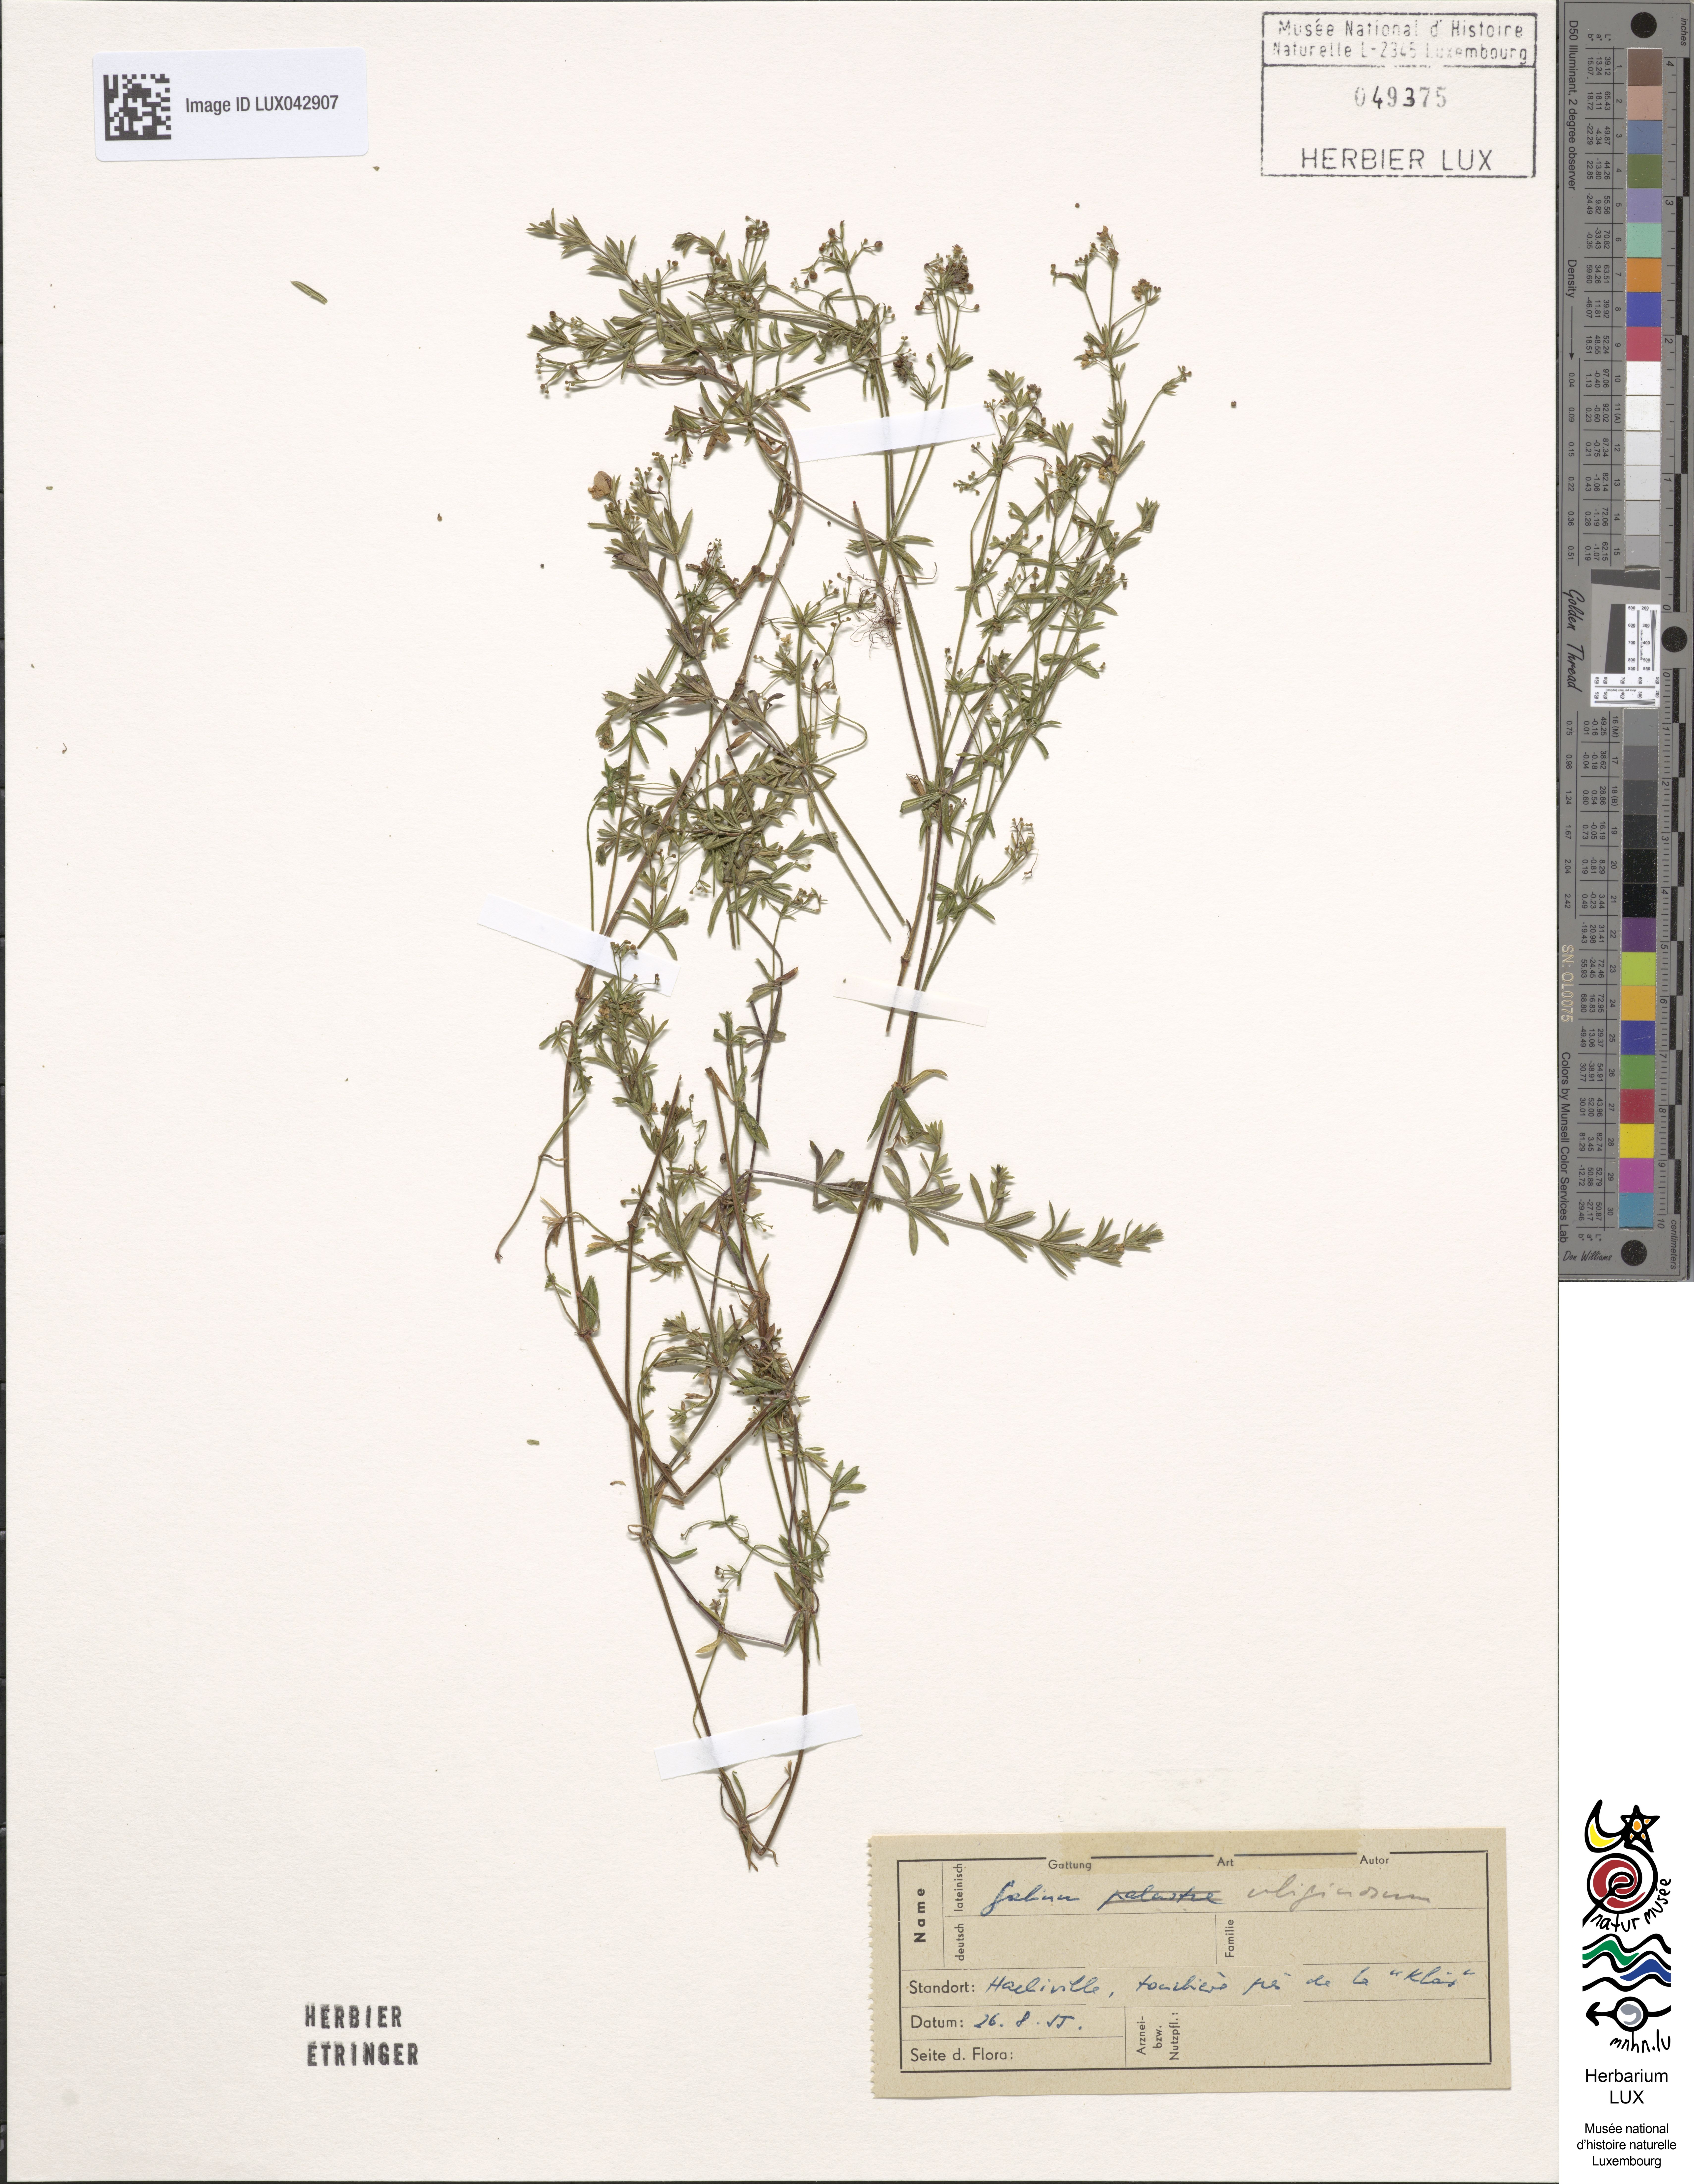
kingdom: Plantae
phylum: Tracheophyta
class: Magnoliopsida
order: Gentianales
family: Rubiaceae
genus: Galium
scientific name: Galium uliginosum
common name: Fen bedstraw
